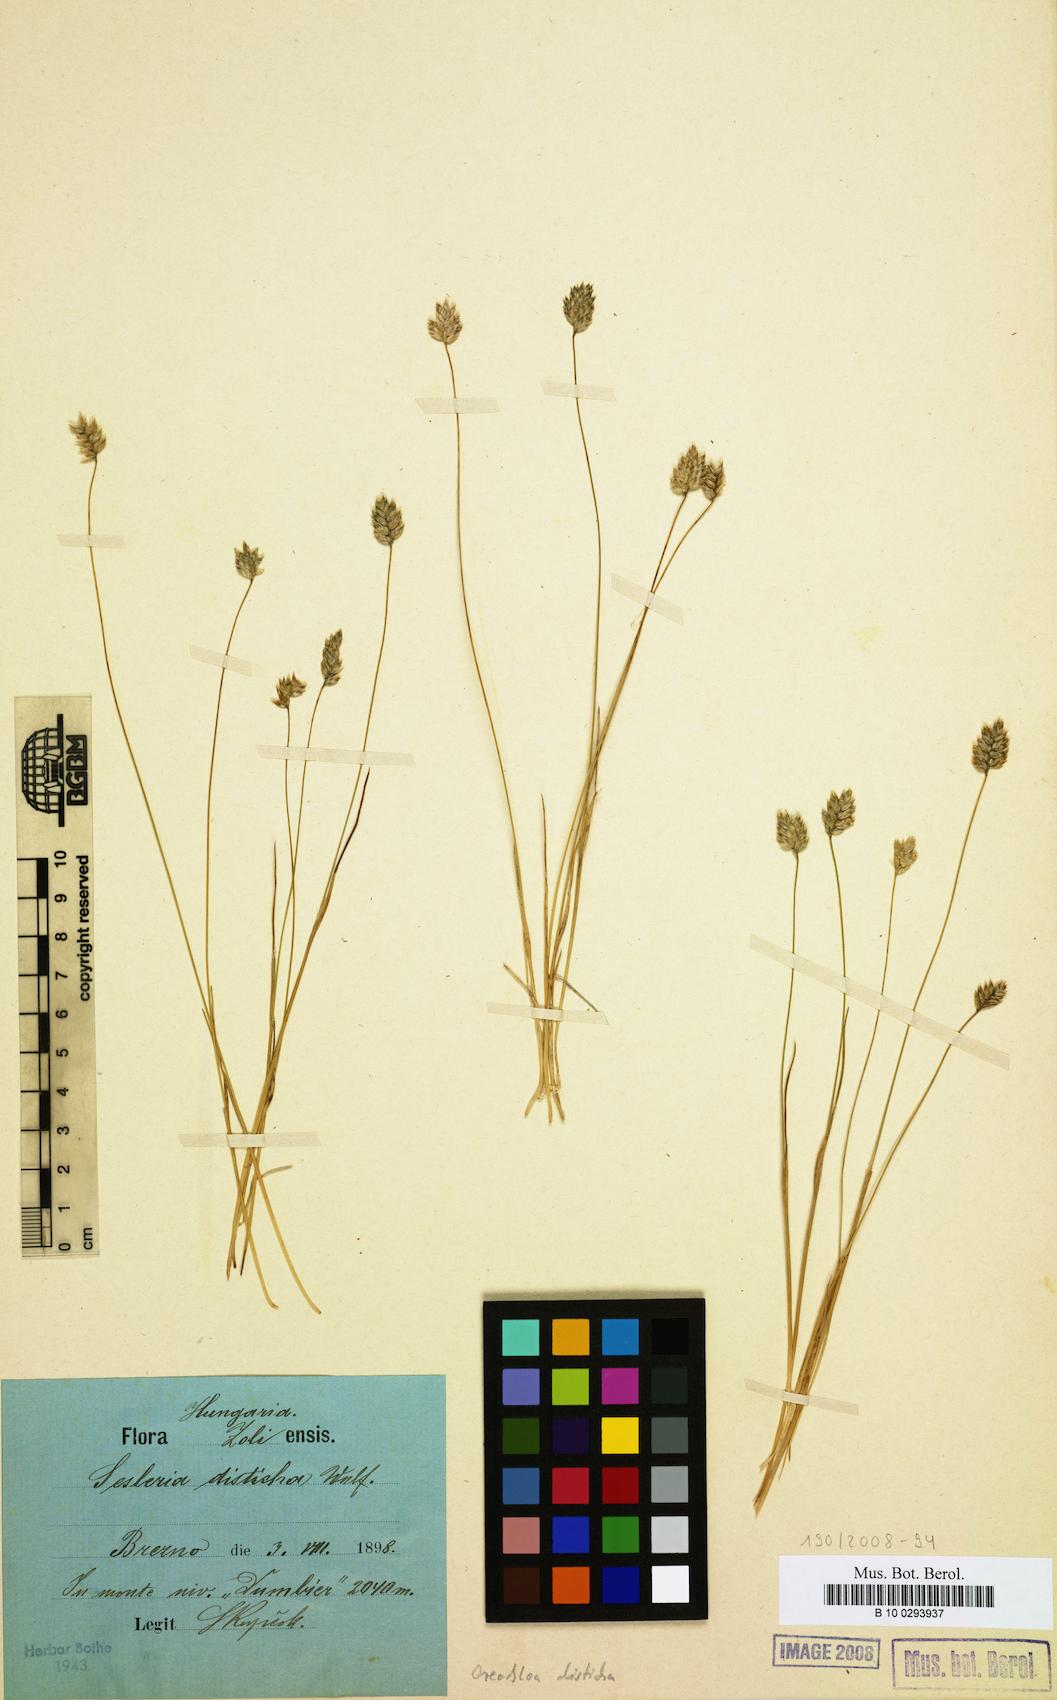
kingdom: Plantae
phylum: Tracheophyta
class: Liliopsida
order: Poales
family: Poaceae
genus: Oreochloa
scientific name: Oreochloa disticha
